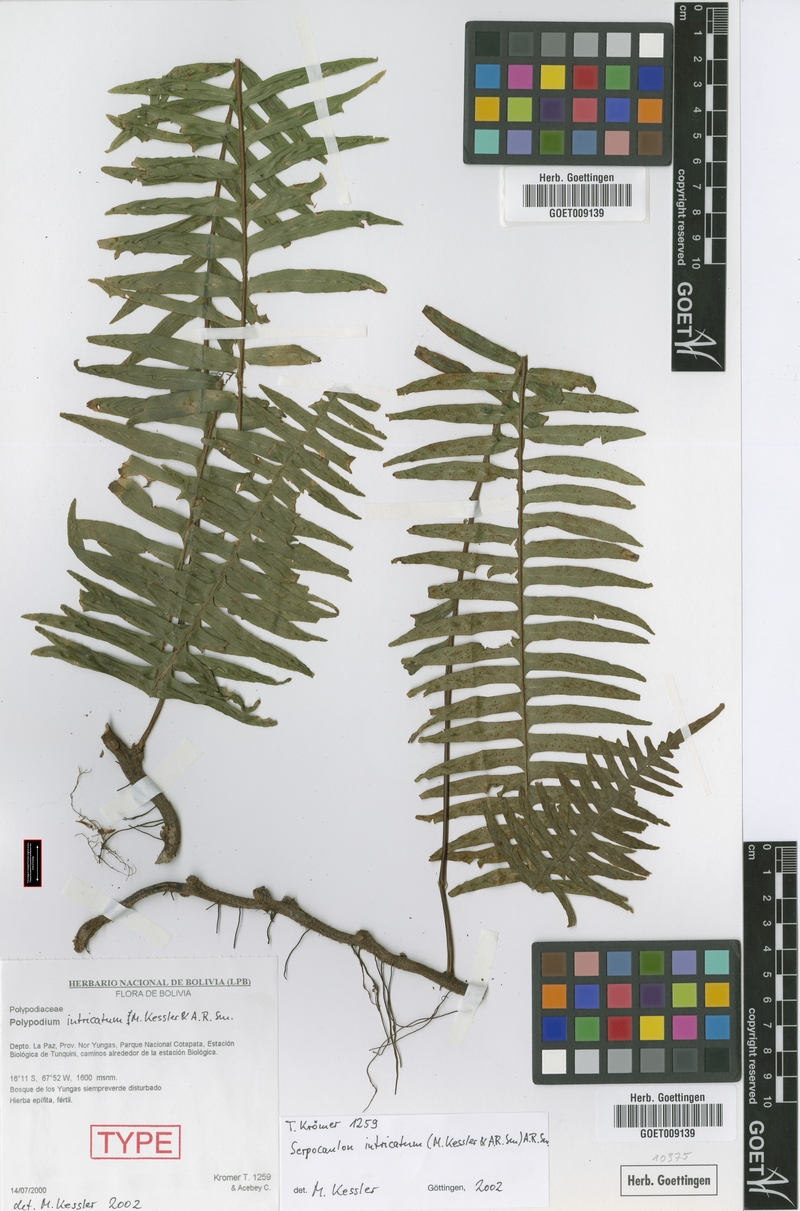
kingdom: Plantae
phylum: Tracheophyta
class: Polypodiopsida
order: Polypodiales
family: Polypodiaceae
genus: Serpocaulon
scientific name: Serpocaulon intricatum
